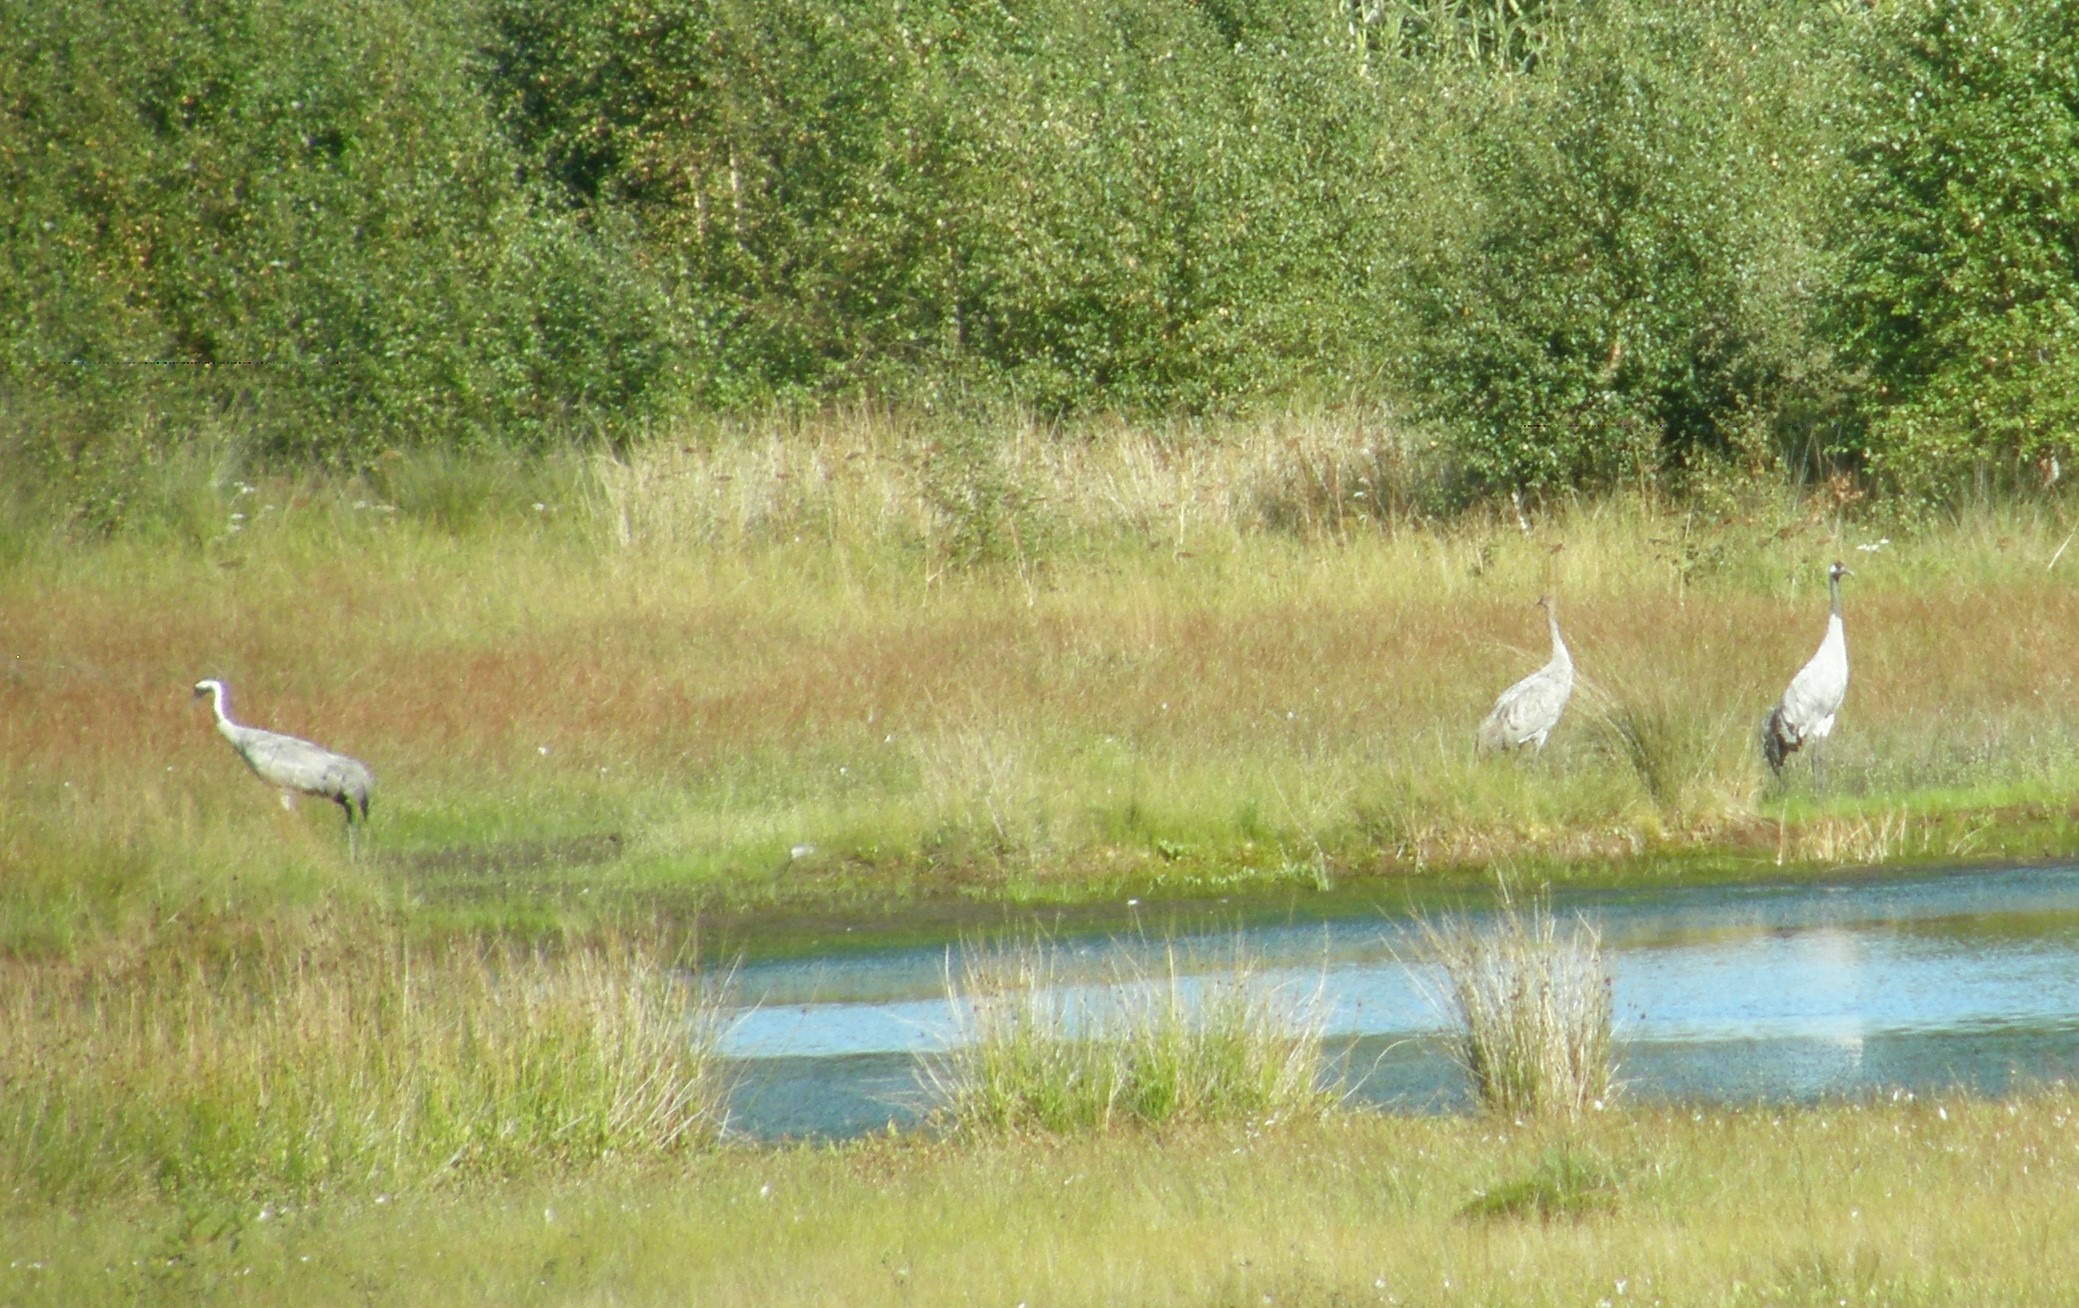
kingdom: Animalia
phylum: Chordata
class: Aves
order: Gruiformes
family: Gruidae
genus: Grus
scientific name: Grus grus
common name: Trane
